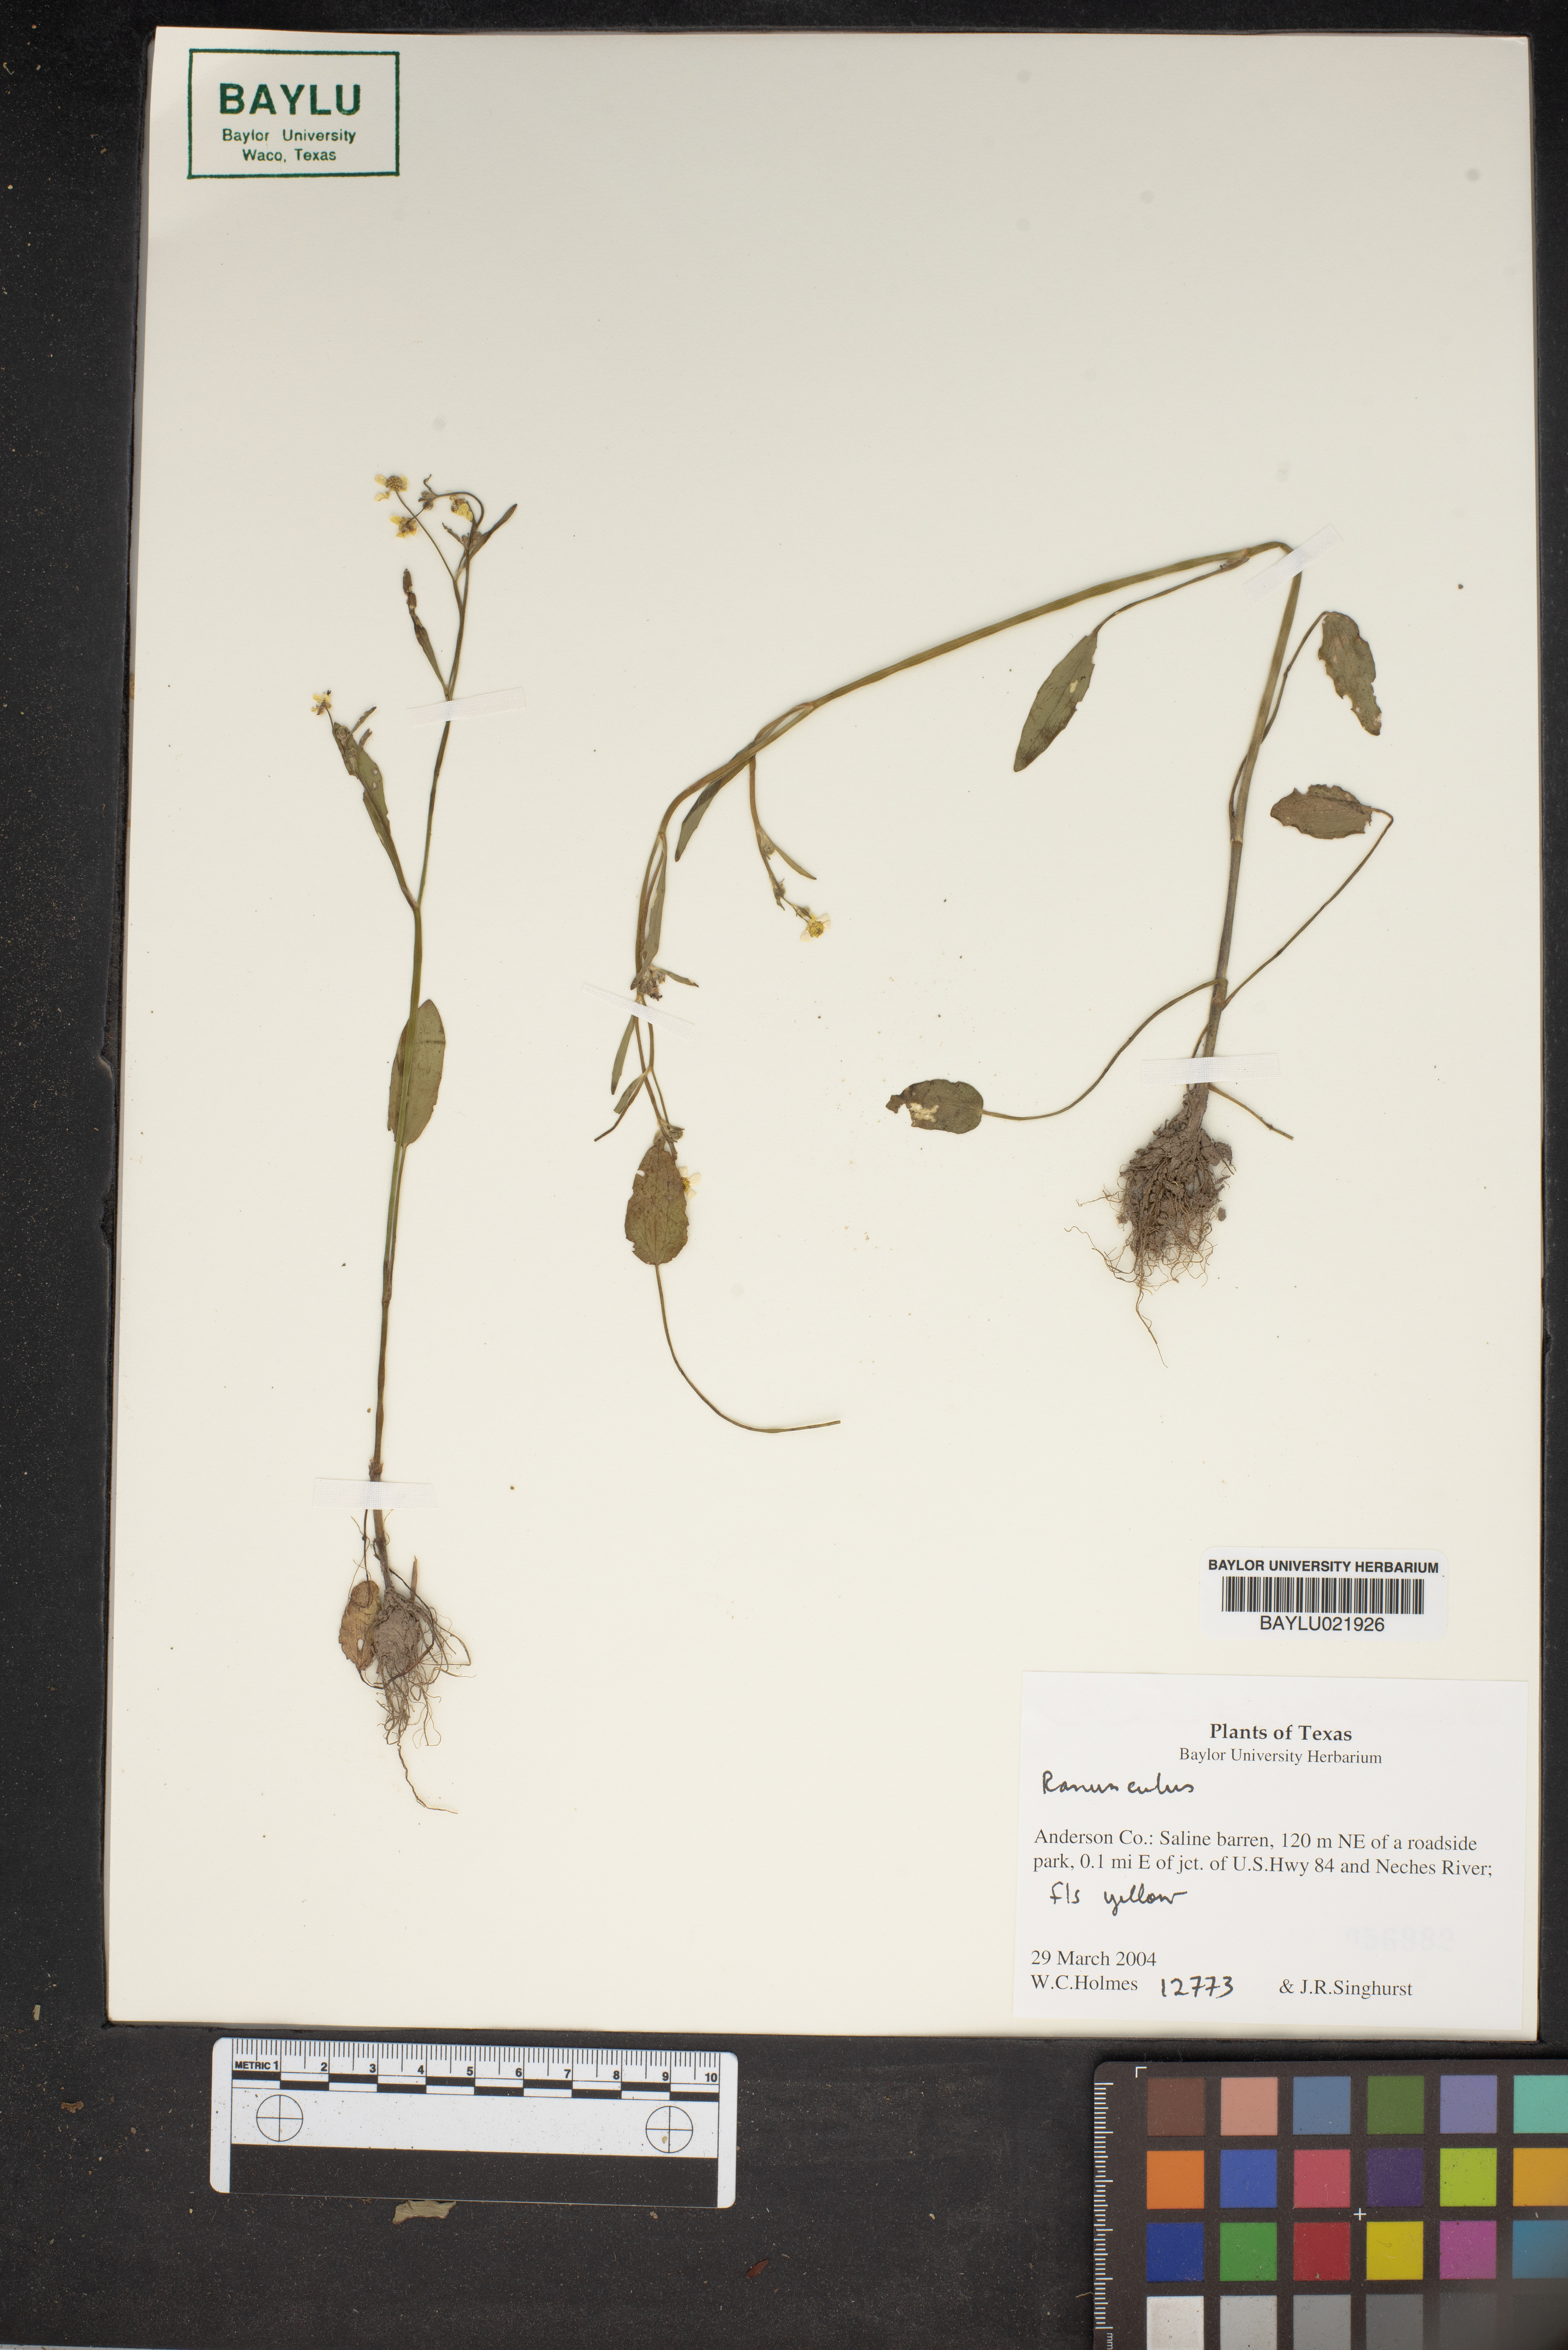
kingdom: Plantae
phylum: Tracheophyta
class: Magnoliopsida
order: Ranunculales
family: Ranunculaceae
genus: Ranunculus
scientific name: Ranunculus
